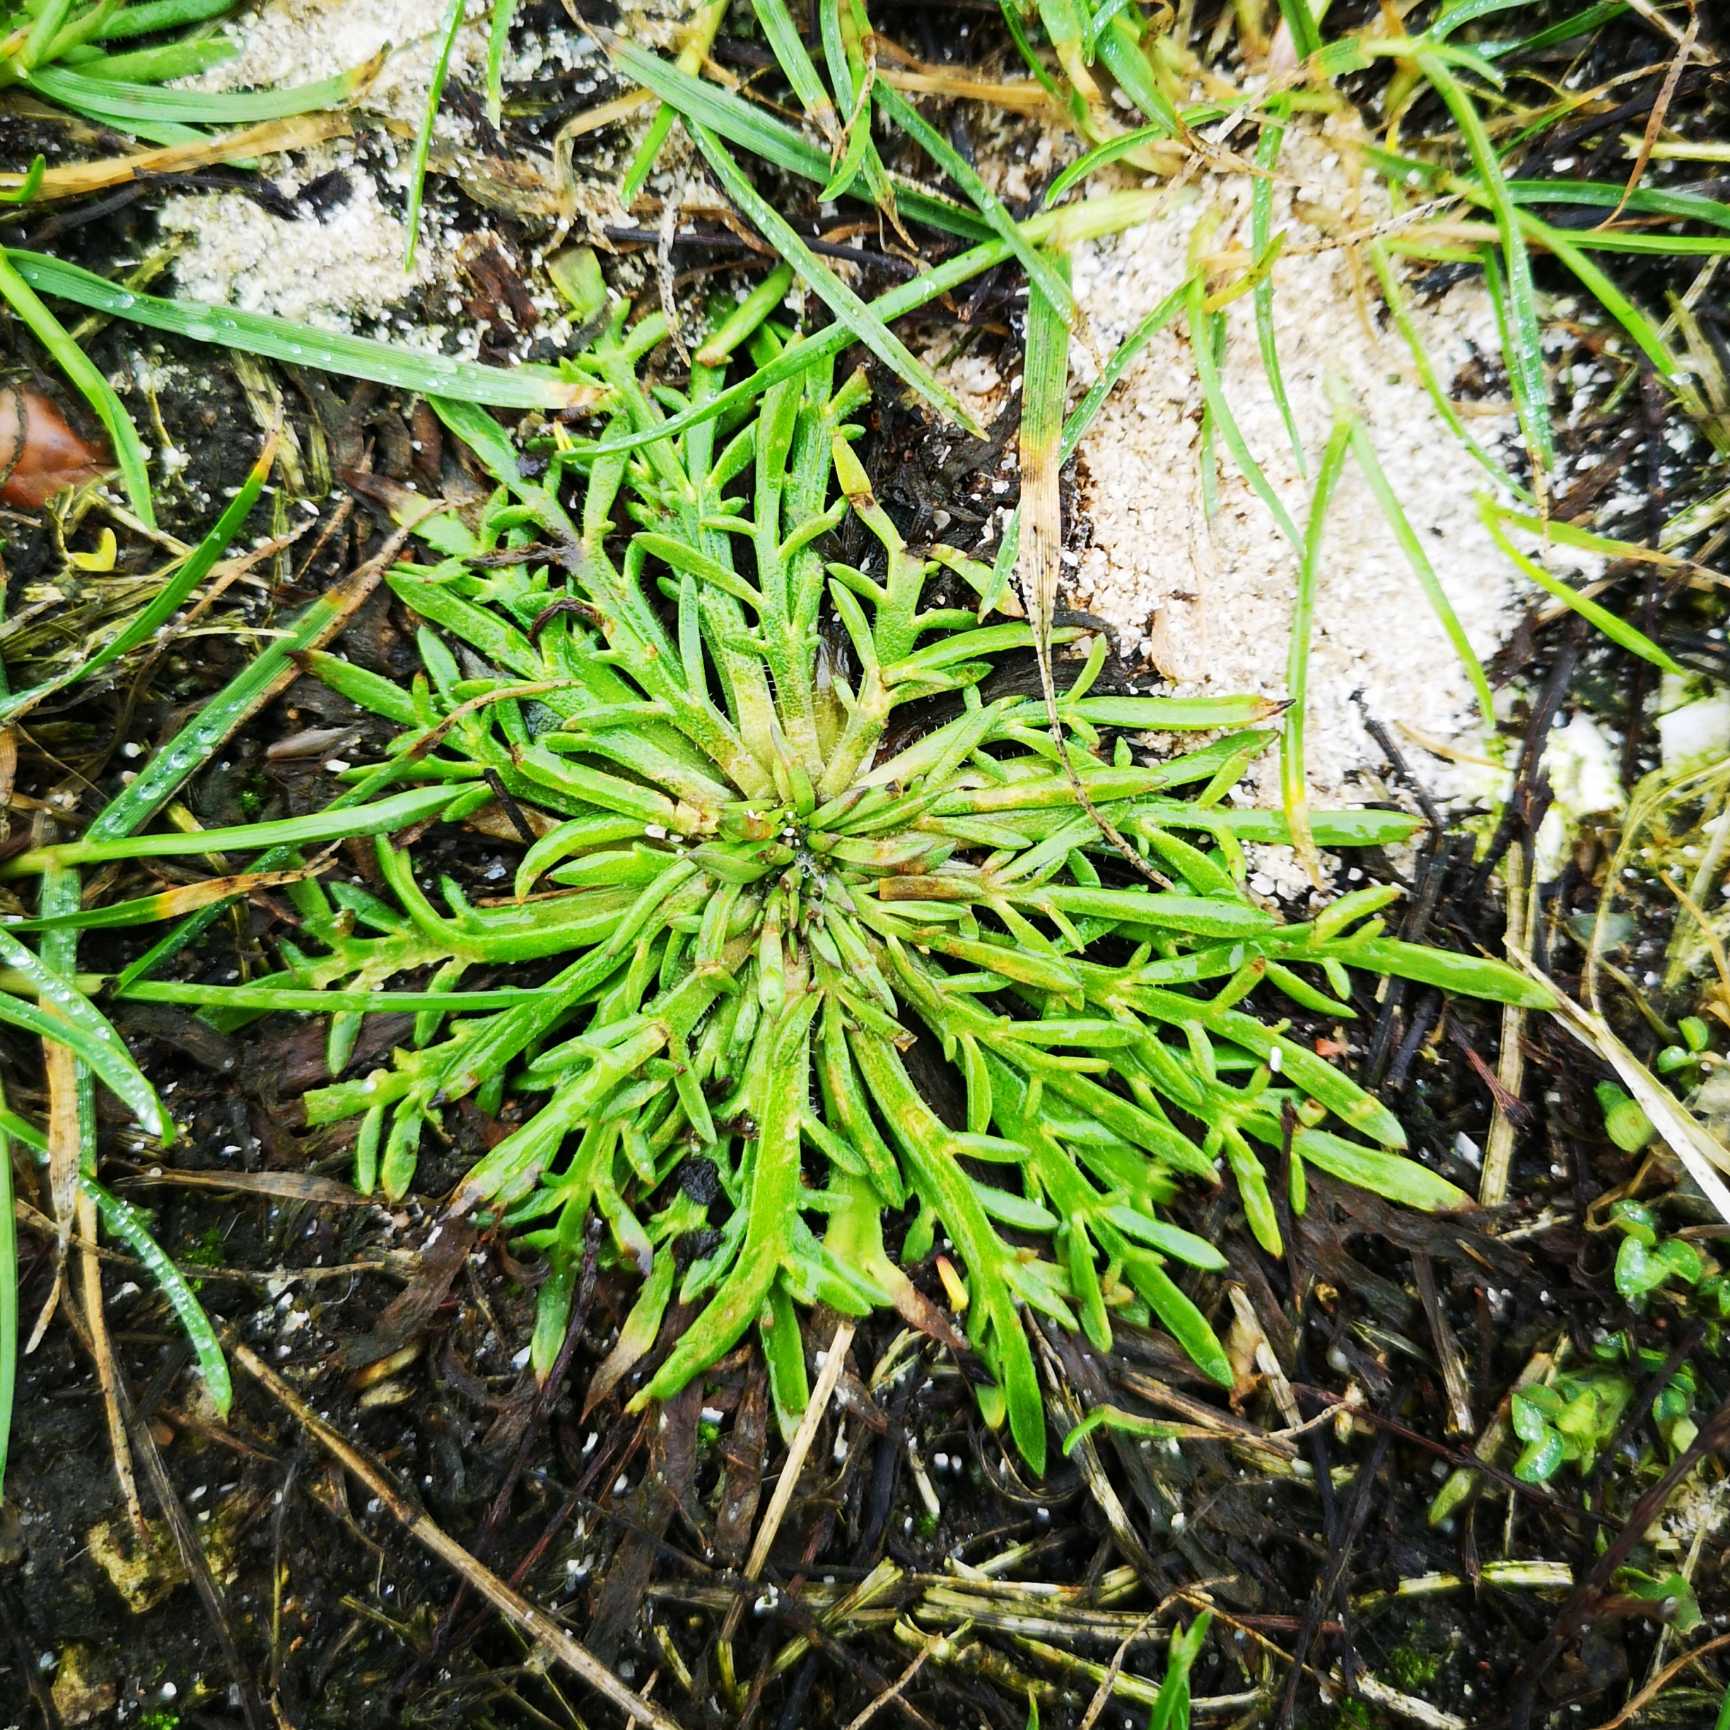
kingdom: Plantae
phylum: Tracheophyta
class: Magnoliopsida
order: Lamiales
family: Plantaginaceae
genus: Plantago
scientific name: Plantago coronopus
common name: Fliget vejbred
